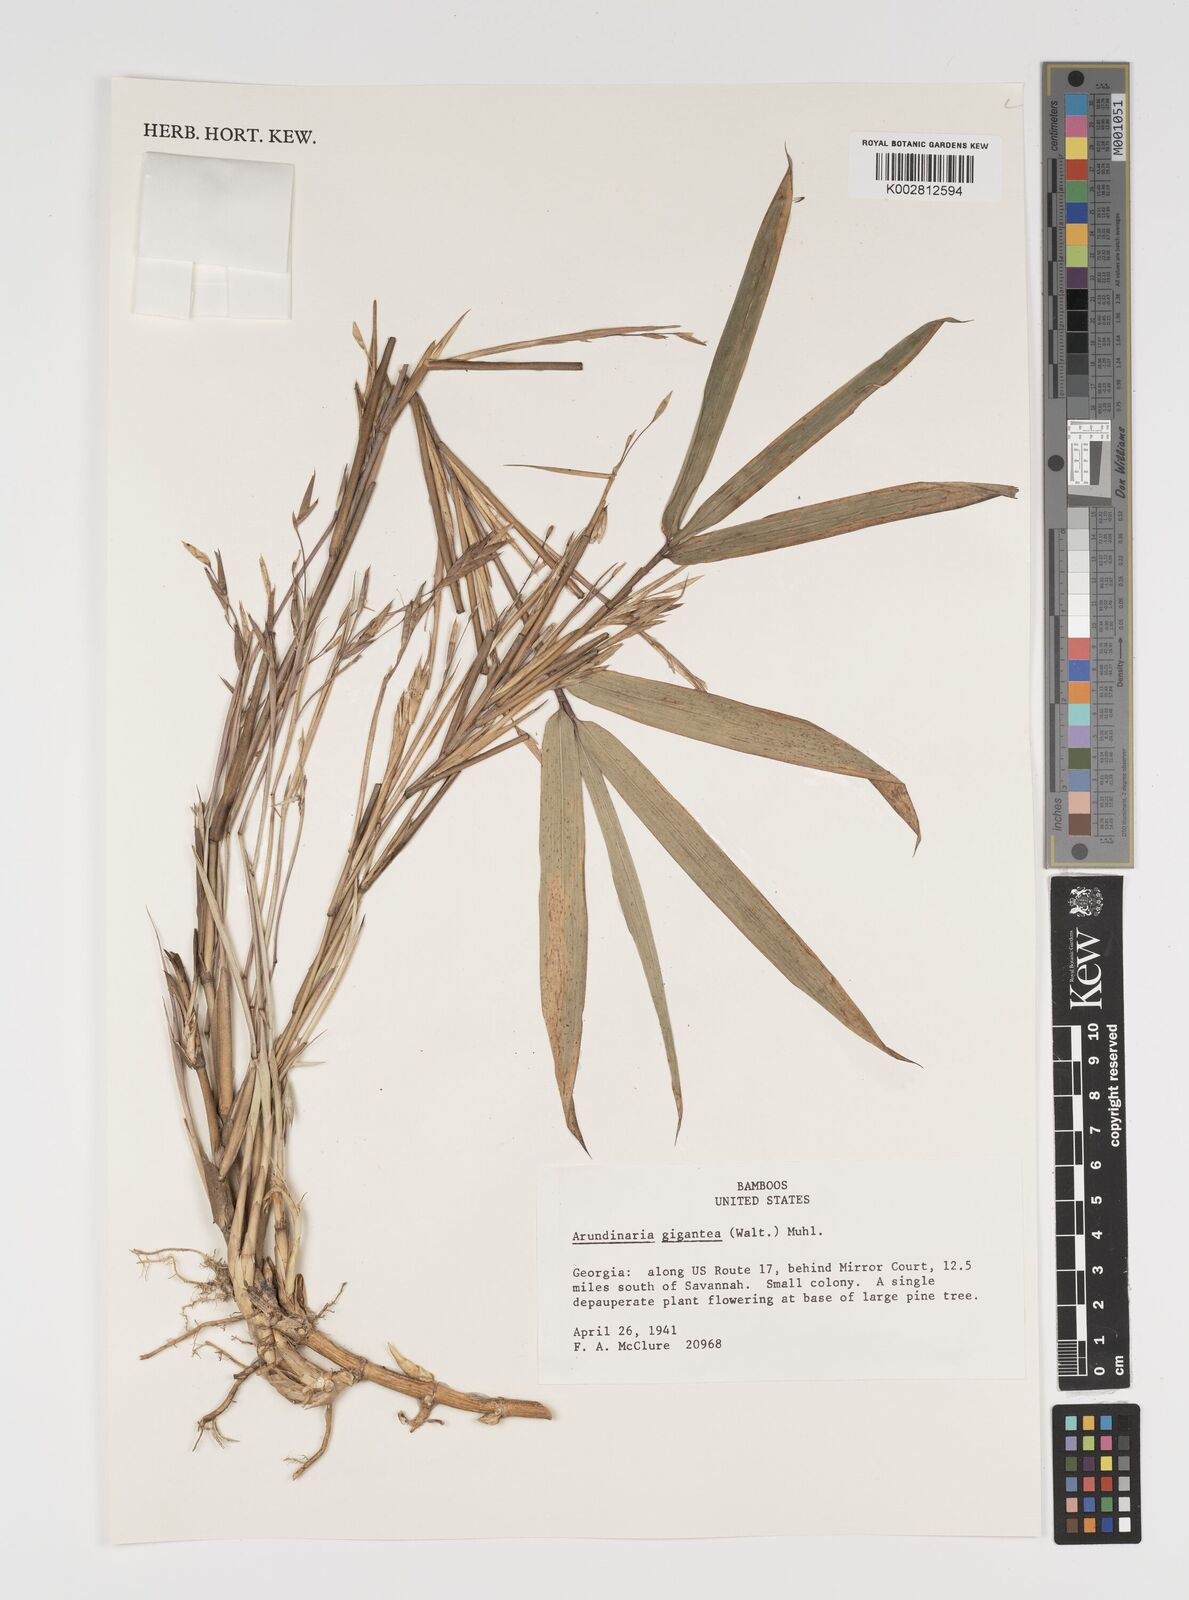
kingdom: Plantae
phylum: Tracheophyta
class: Liliopsida
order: Poales
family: Poaceae
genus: Arundinaria
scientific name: Arundinaria gigantea
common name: Giant cane
